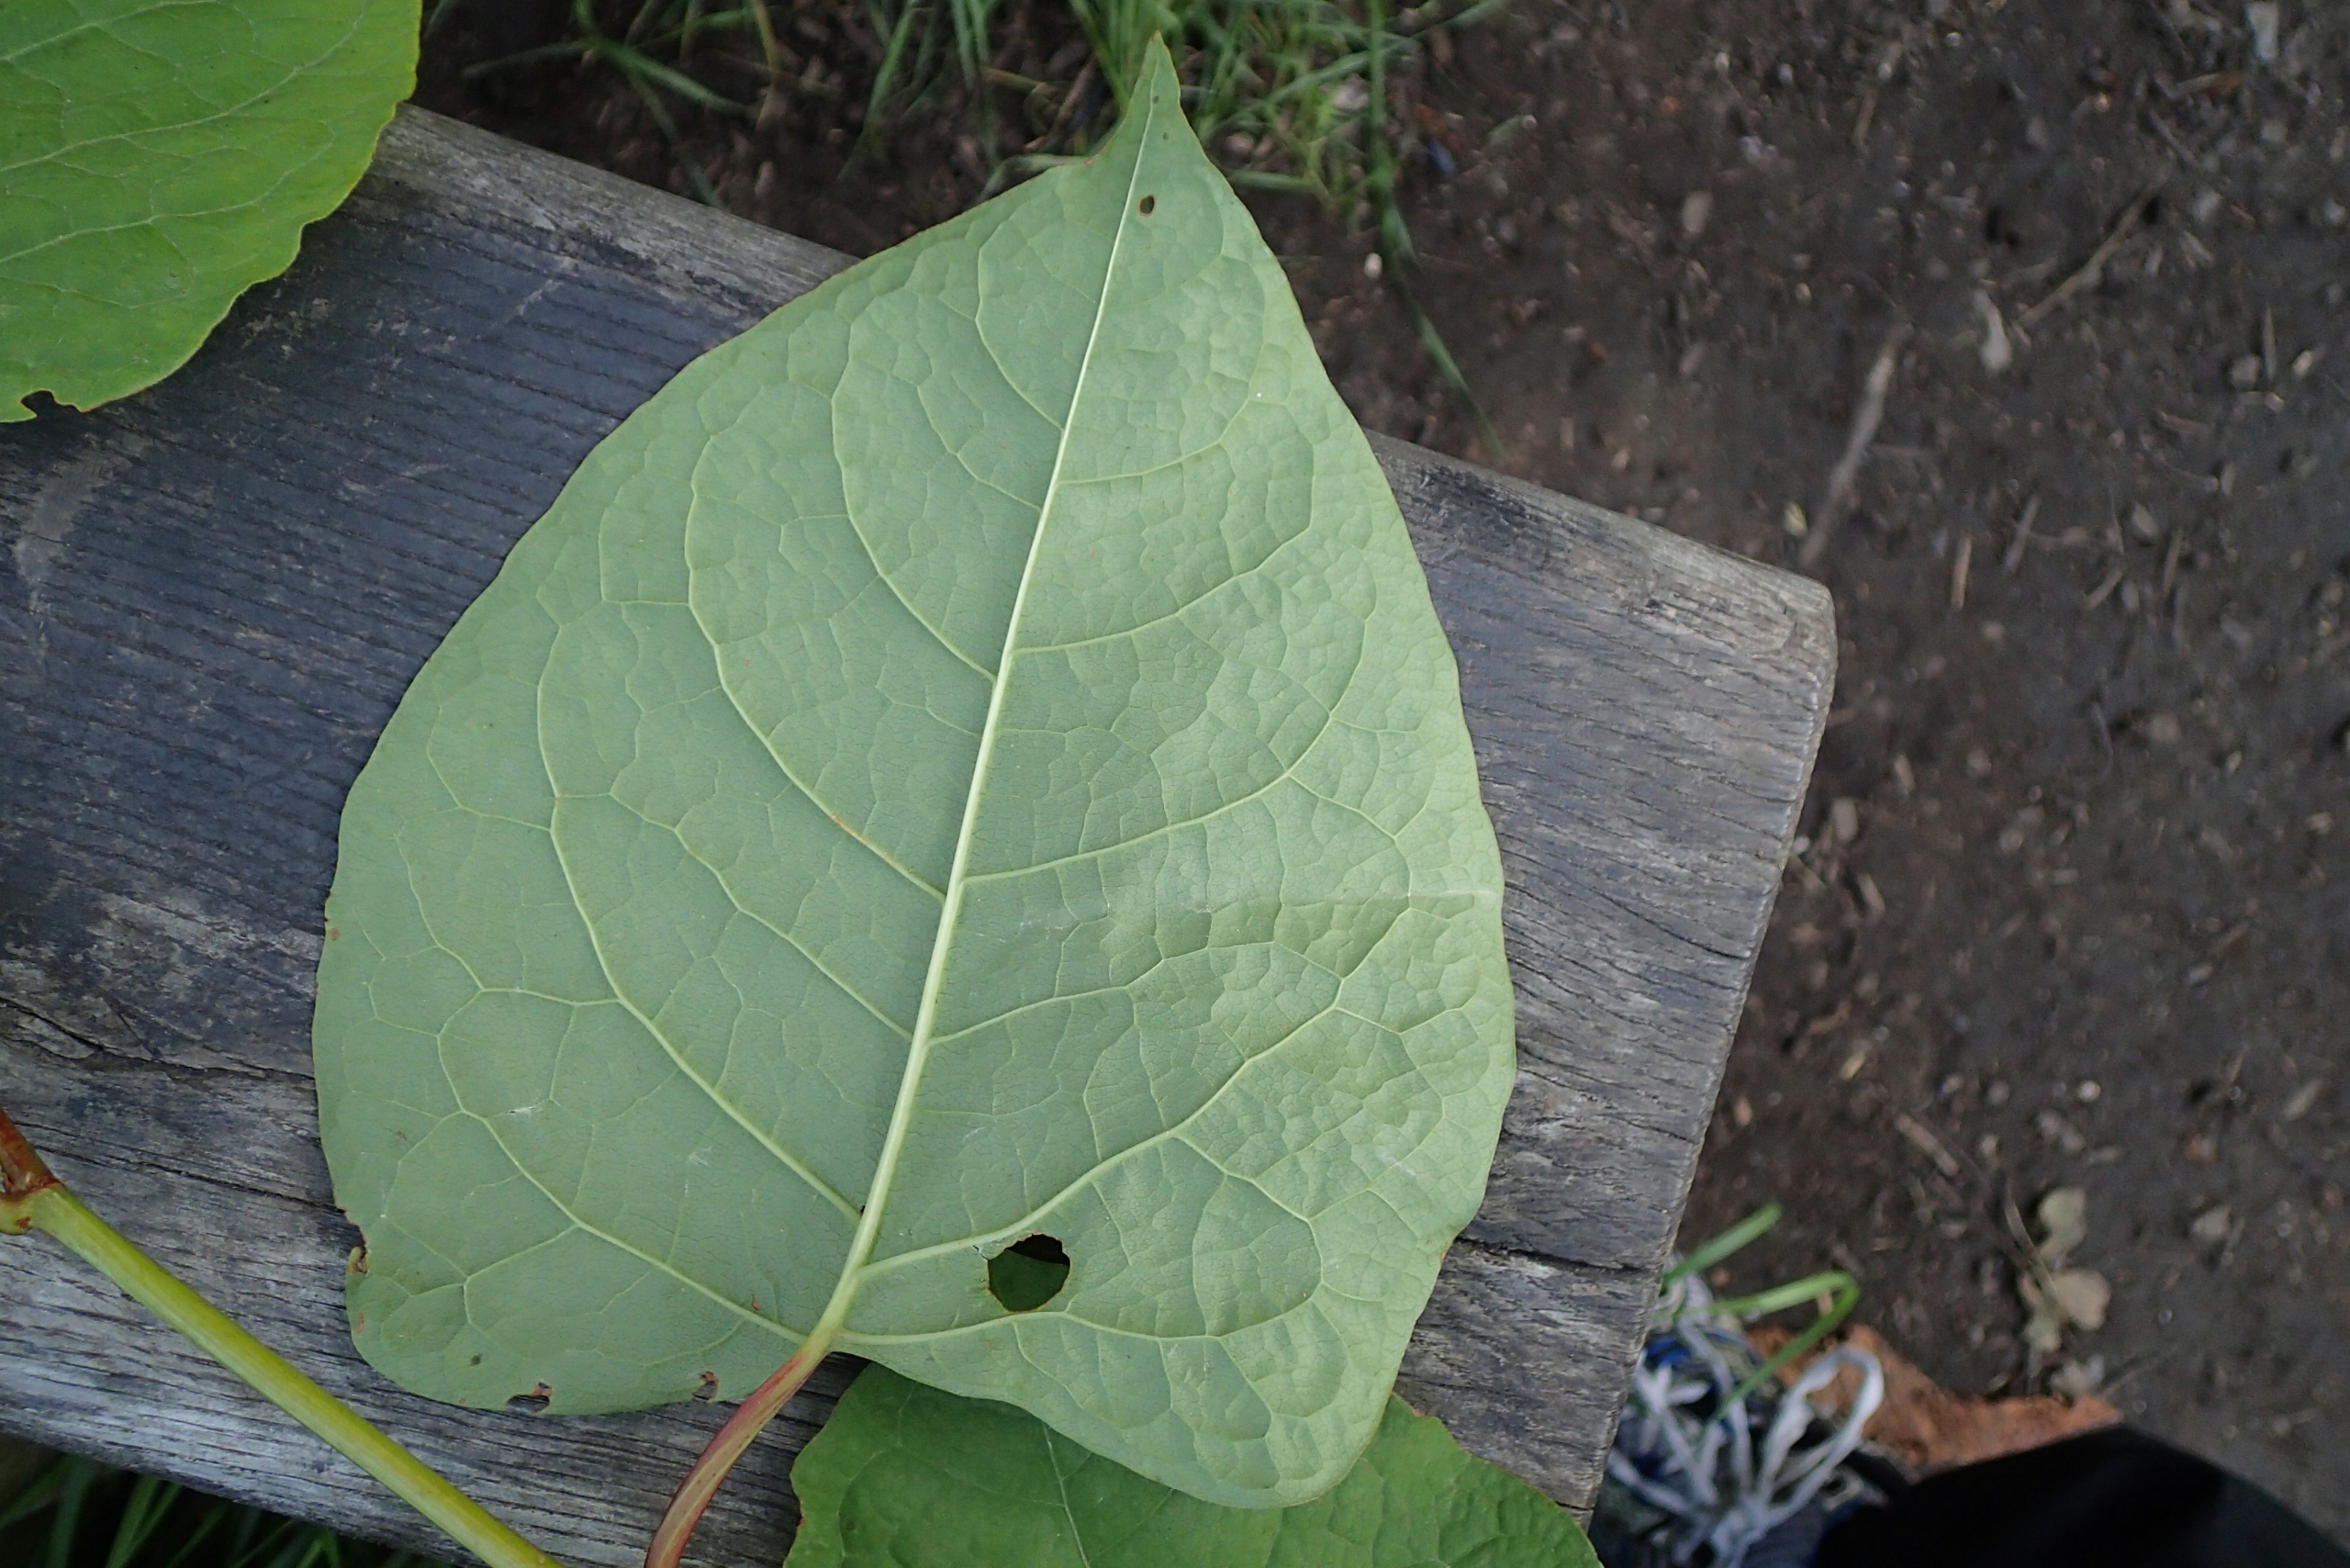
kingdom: Plantae
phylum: Tracheophyta
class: Magnoliopsida
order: Caryophyllales
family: Polygonaceae
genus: Reynoutria
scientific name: Reynoutria japonica
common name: Japan-pileurt
